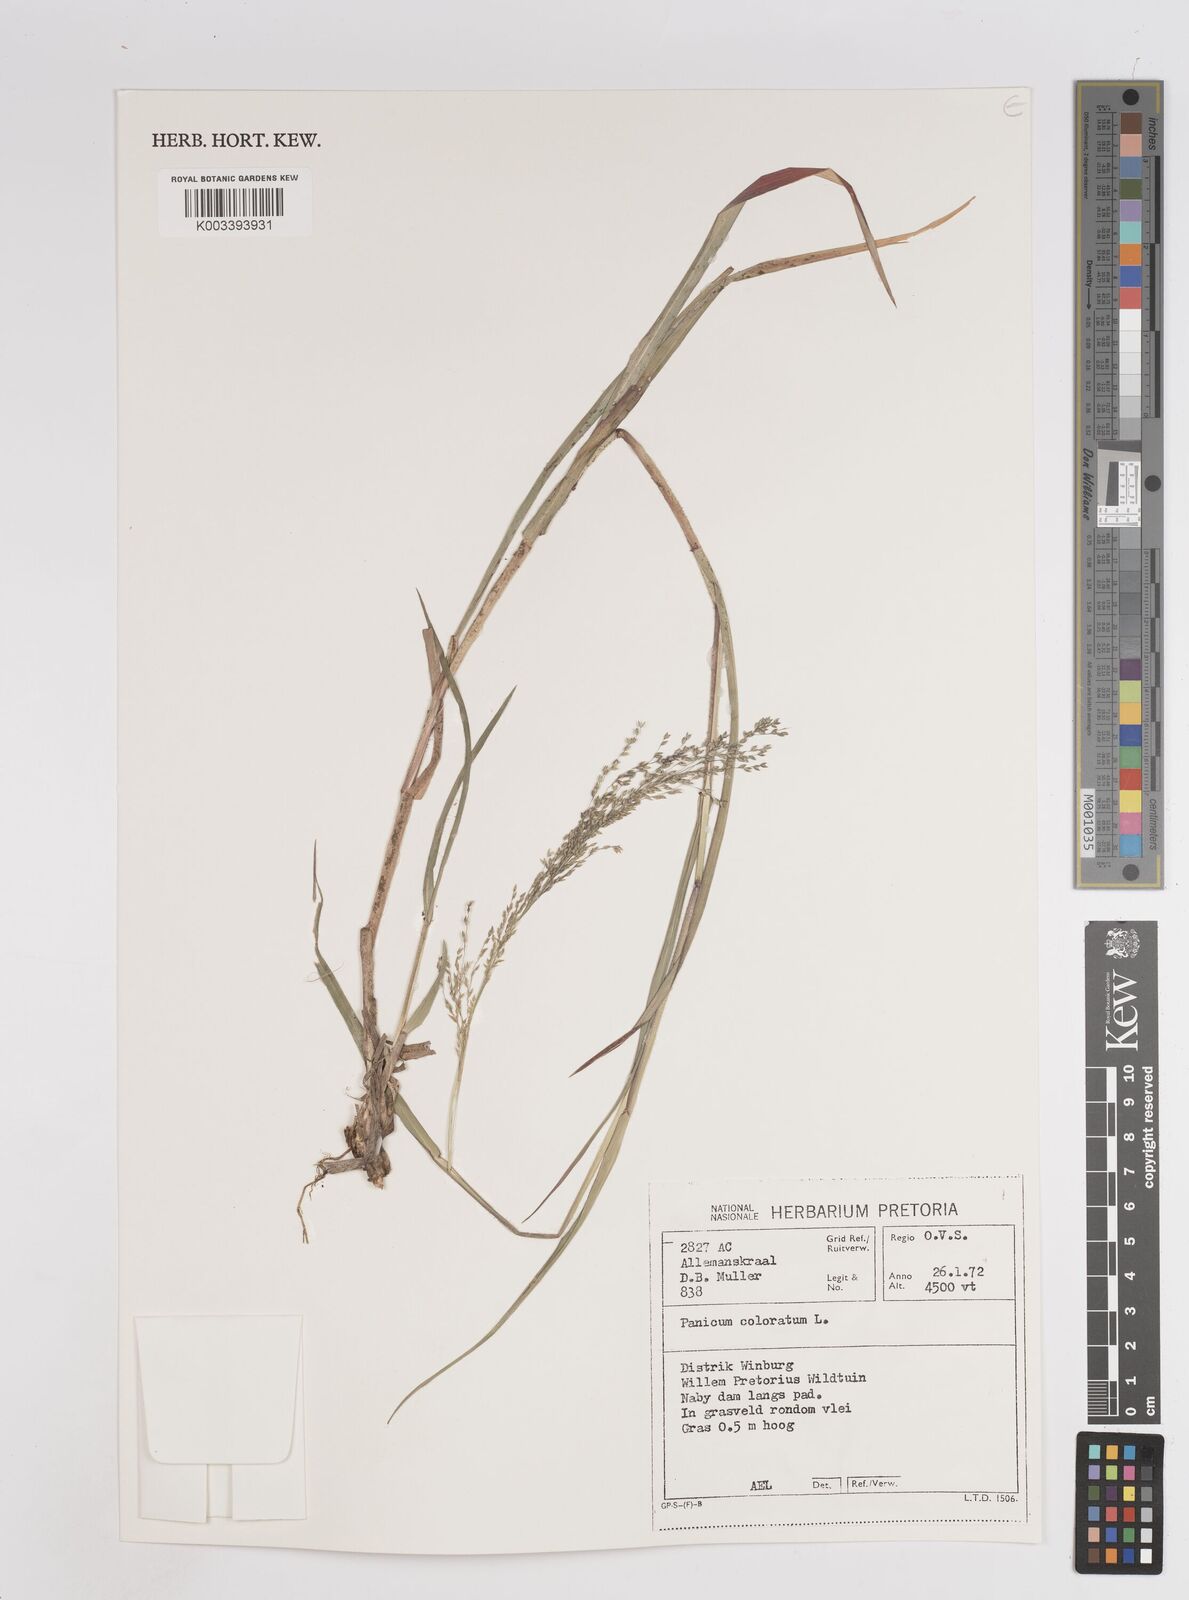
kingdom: Plantae
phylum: Tracheophyta
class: Liliopsida
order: Poales
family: Poaceae
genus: Panicum
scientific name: Panicum coloratum
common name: Kleingrass
